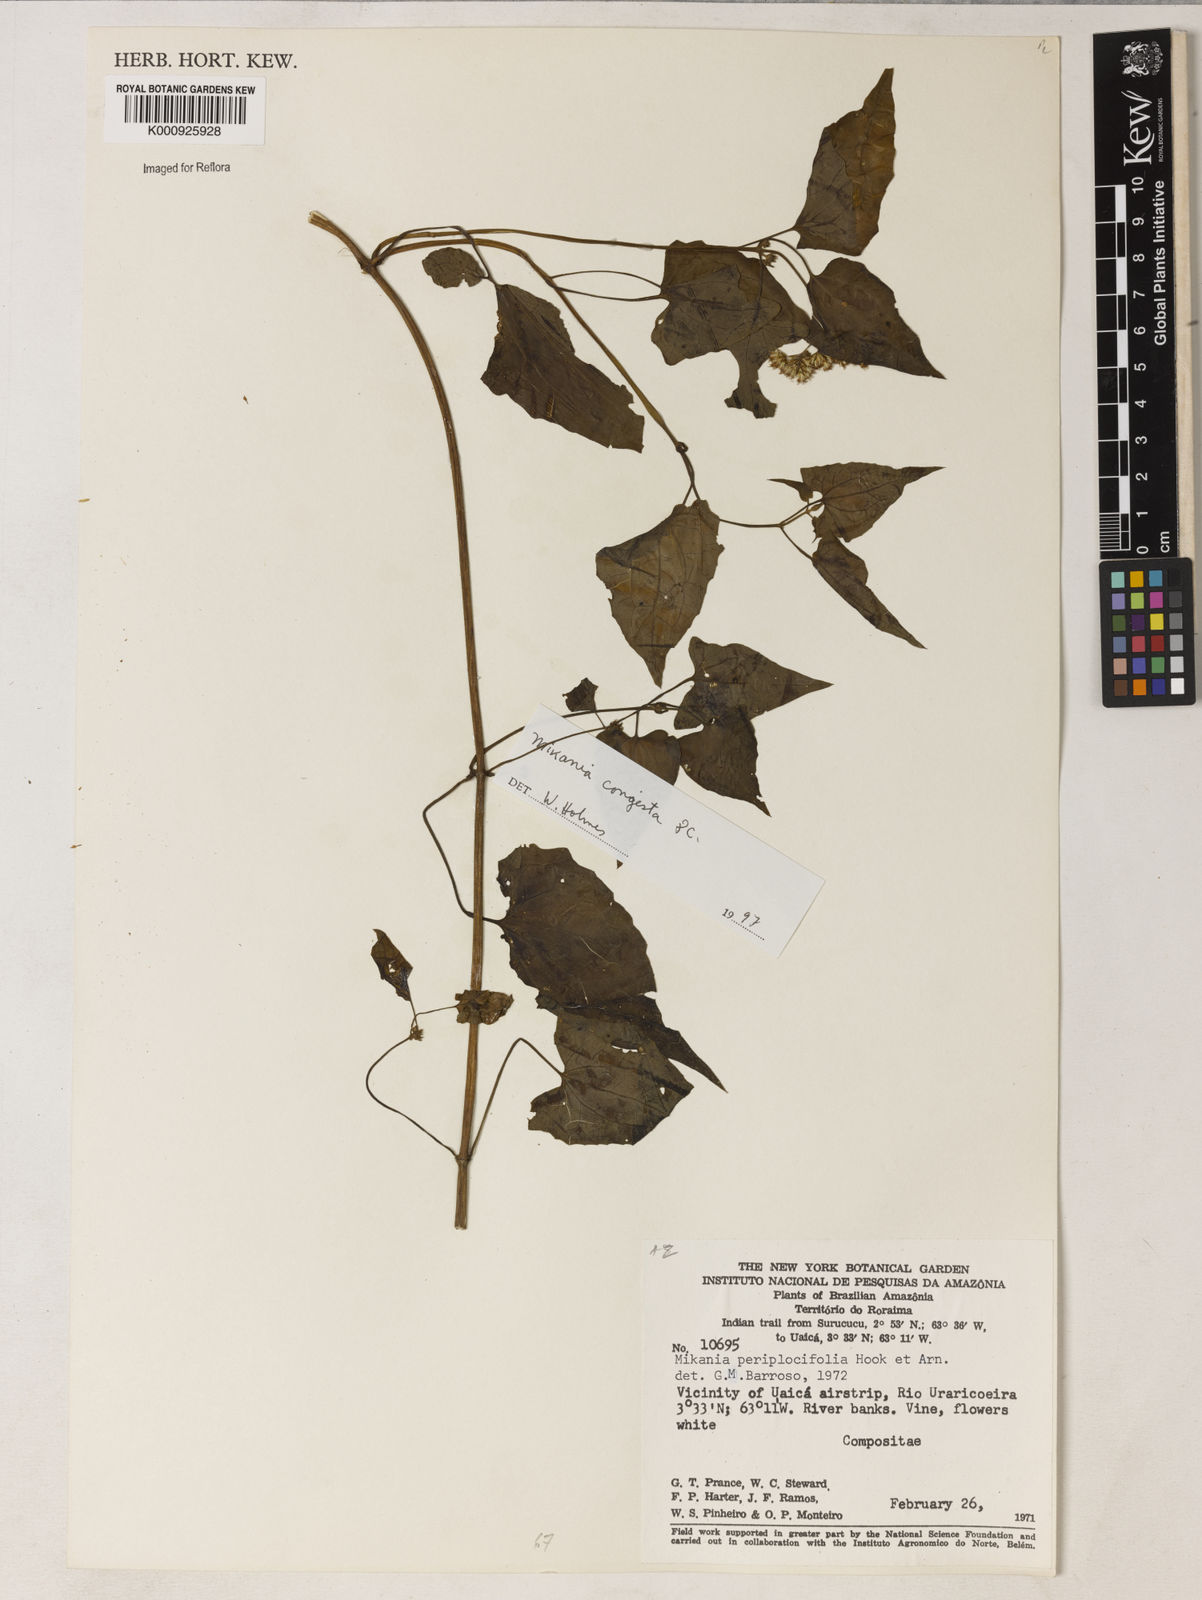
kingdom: Plantae
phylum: Tracheophyta
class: Magnoliopsida
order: Asterales
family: Asteraceae
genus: Mikania
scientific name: Mikania periplocifolia
